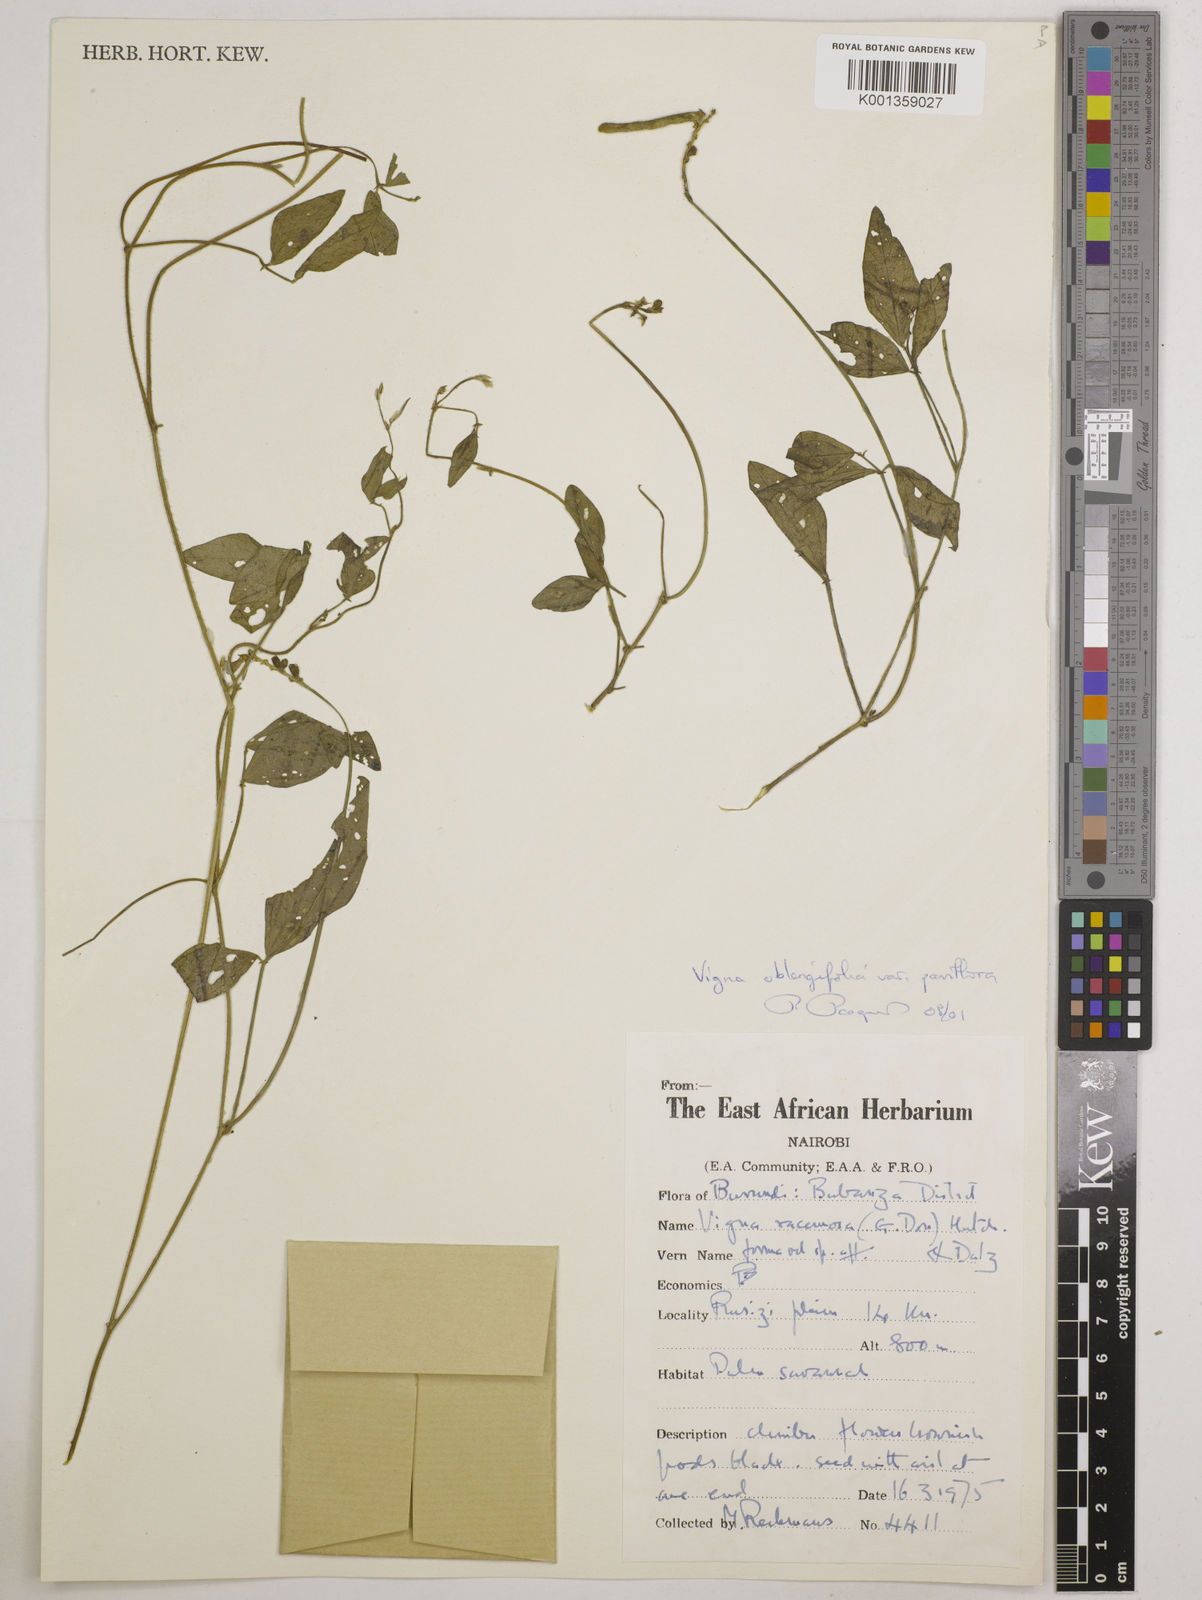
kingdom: Plantae
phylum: Tracheophyta
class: Magnoliopsida
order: Fabales
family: Fabaceae
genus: Vigna
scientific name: Vigna racemosa
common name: Beans not eaten
